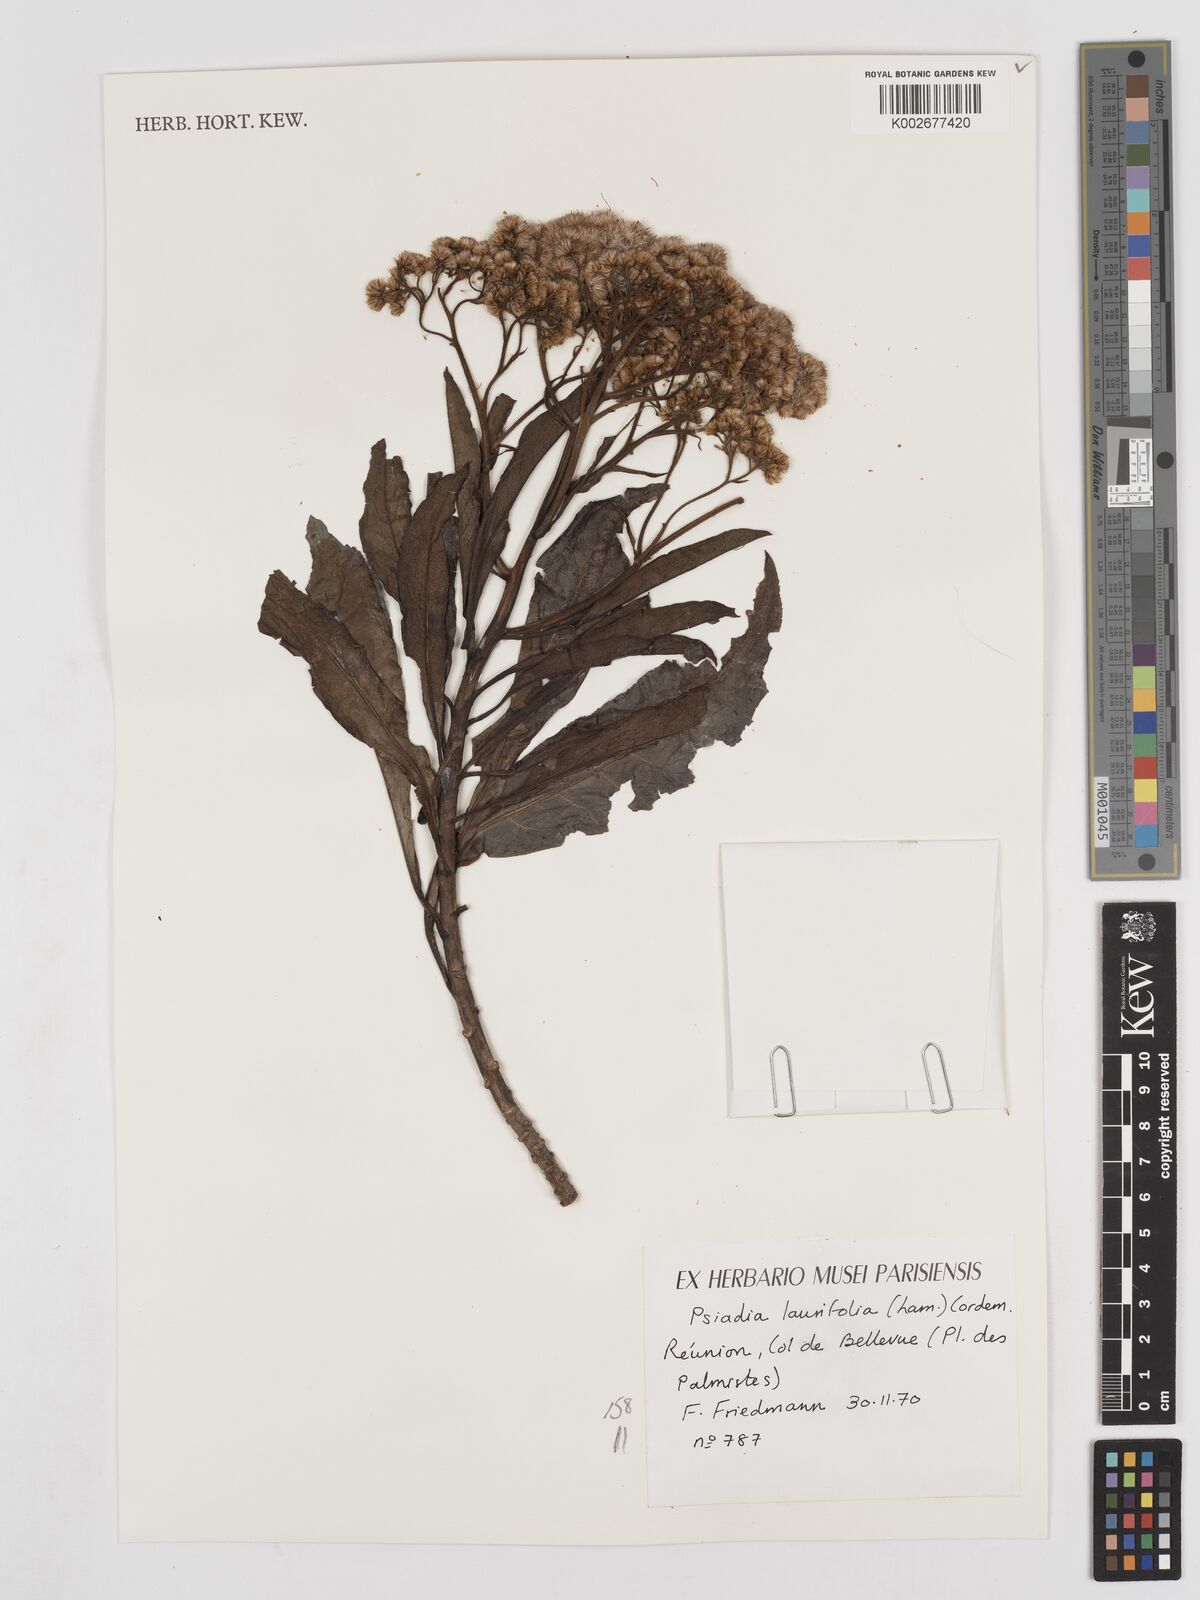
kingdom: Plantae
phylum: Tracheophyta
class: Magnoliopsida
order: Asterales
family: Asteraceae
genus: Psiadia
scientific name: Psiadia laurifolia
